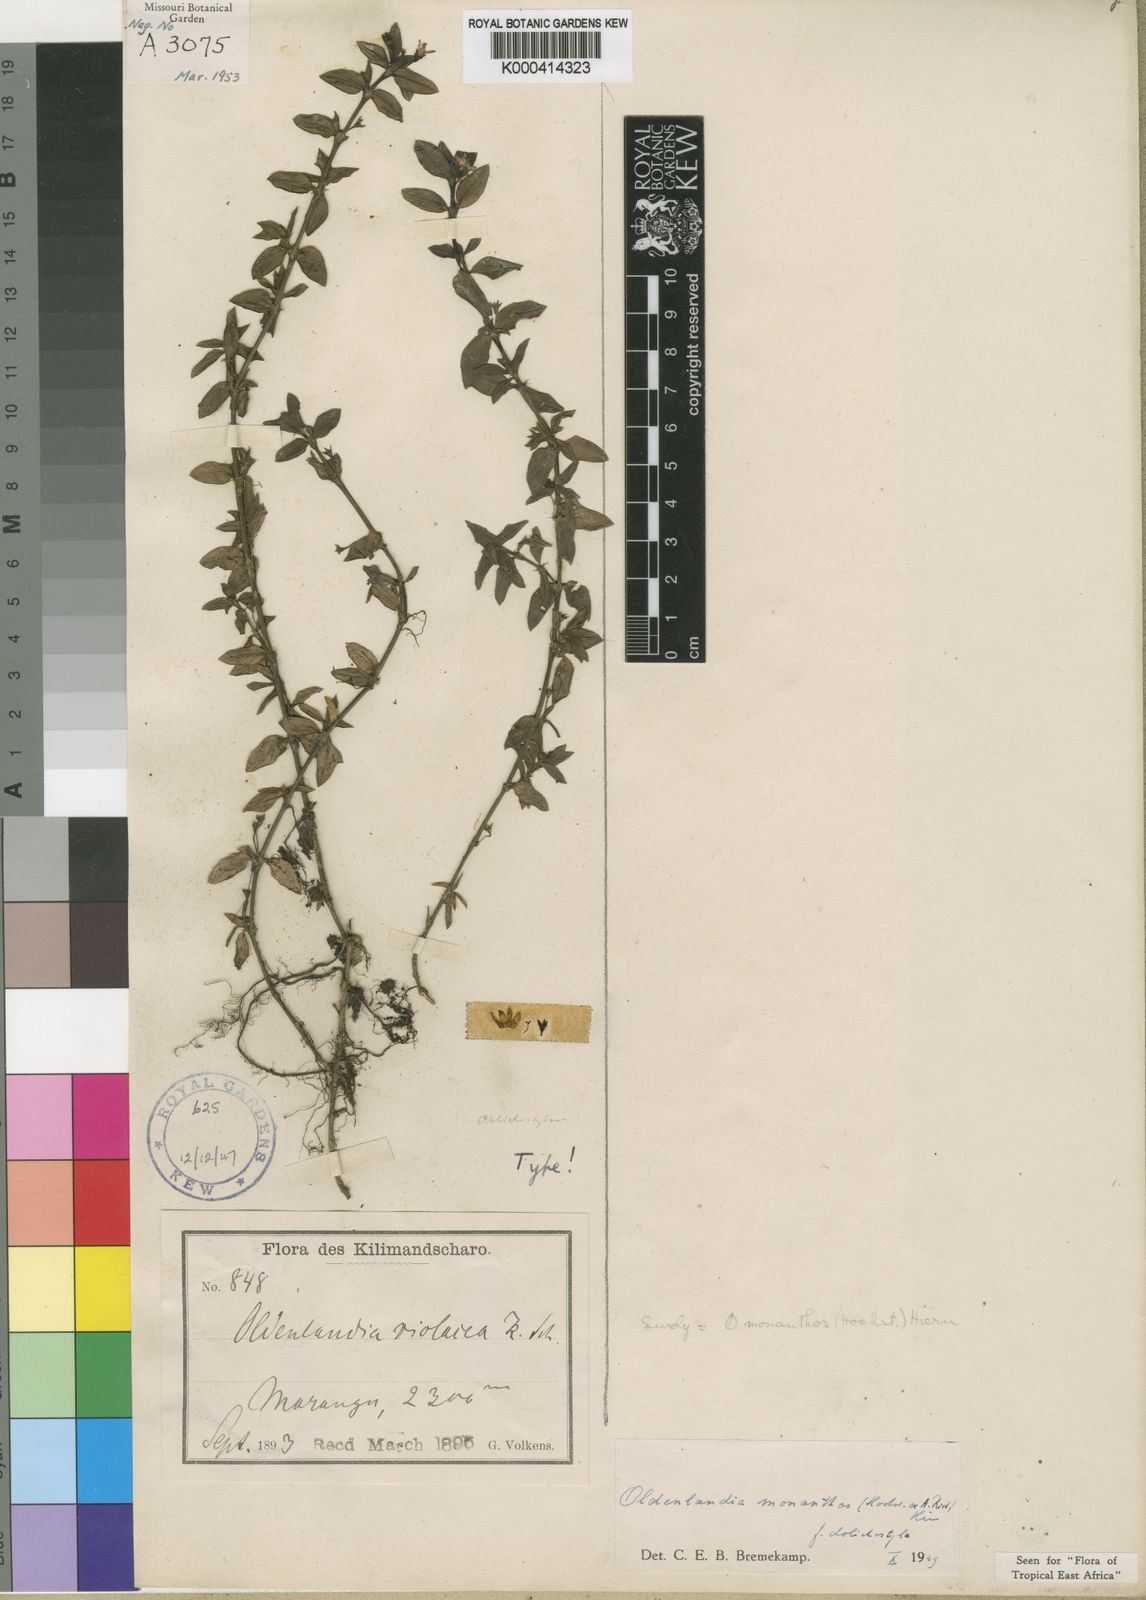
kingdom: Plantae
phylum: Tracheophyta
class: Magnoliopsida
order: Gentianales
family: Rubiaceae
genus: Oldenlandia
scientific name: Oldenlandia
